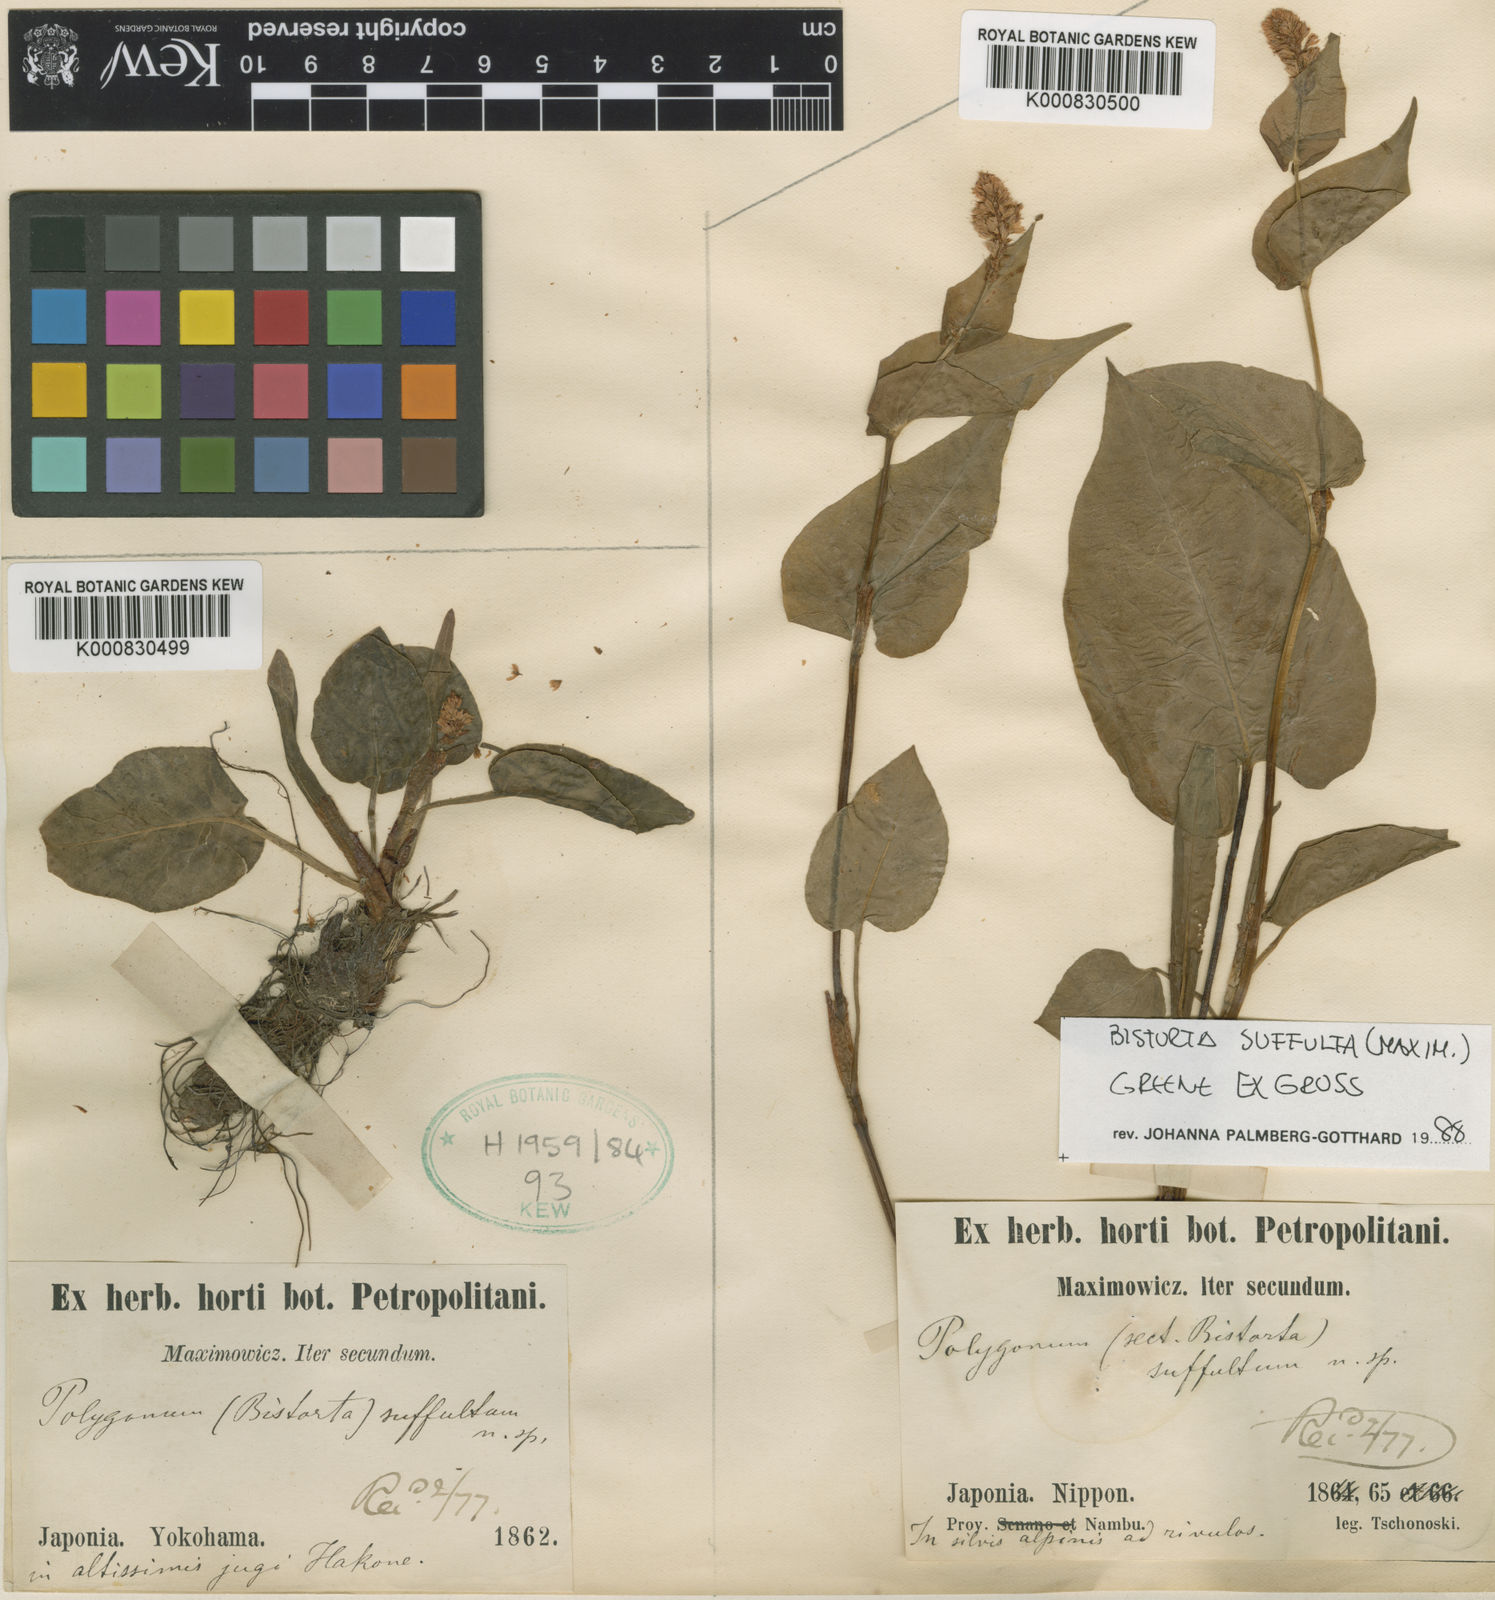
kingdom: Plantae
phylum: Tracheophyta
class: Magnoliopsida
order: Caryophyllales
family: Polygonaceae
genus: Bistorta
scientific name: Bistorta suffulta
